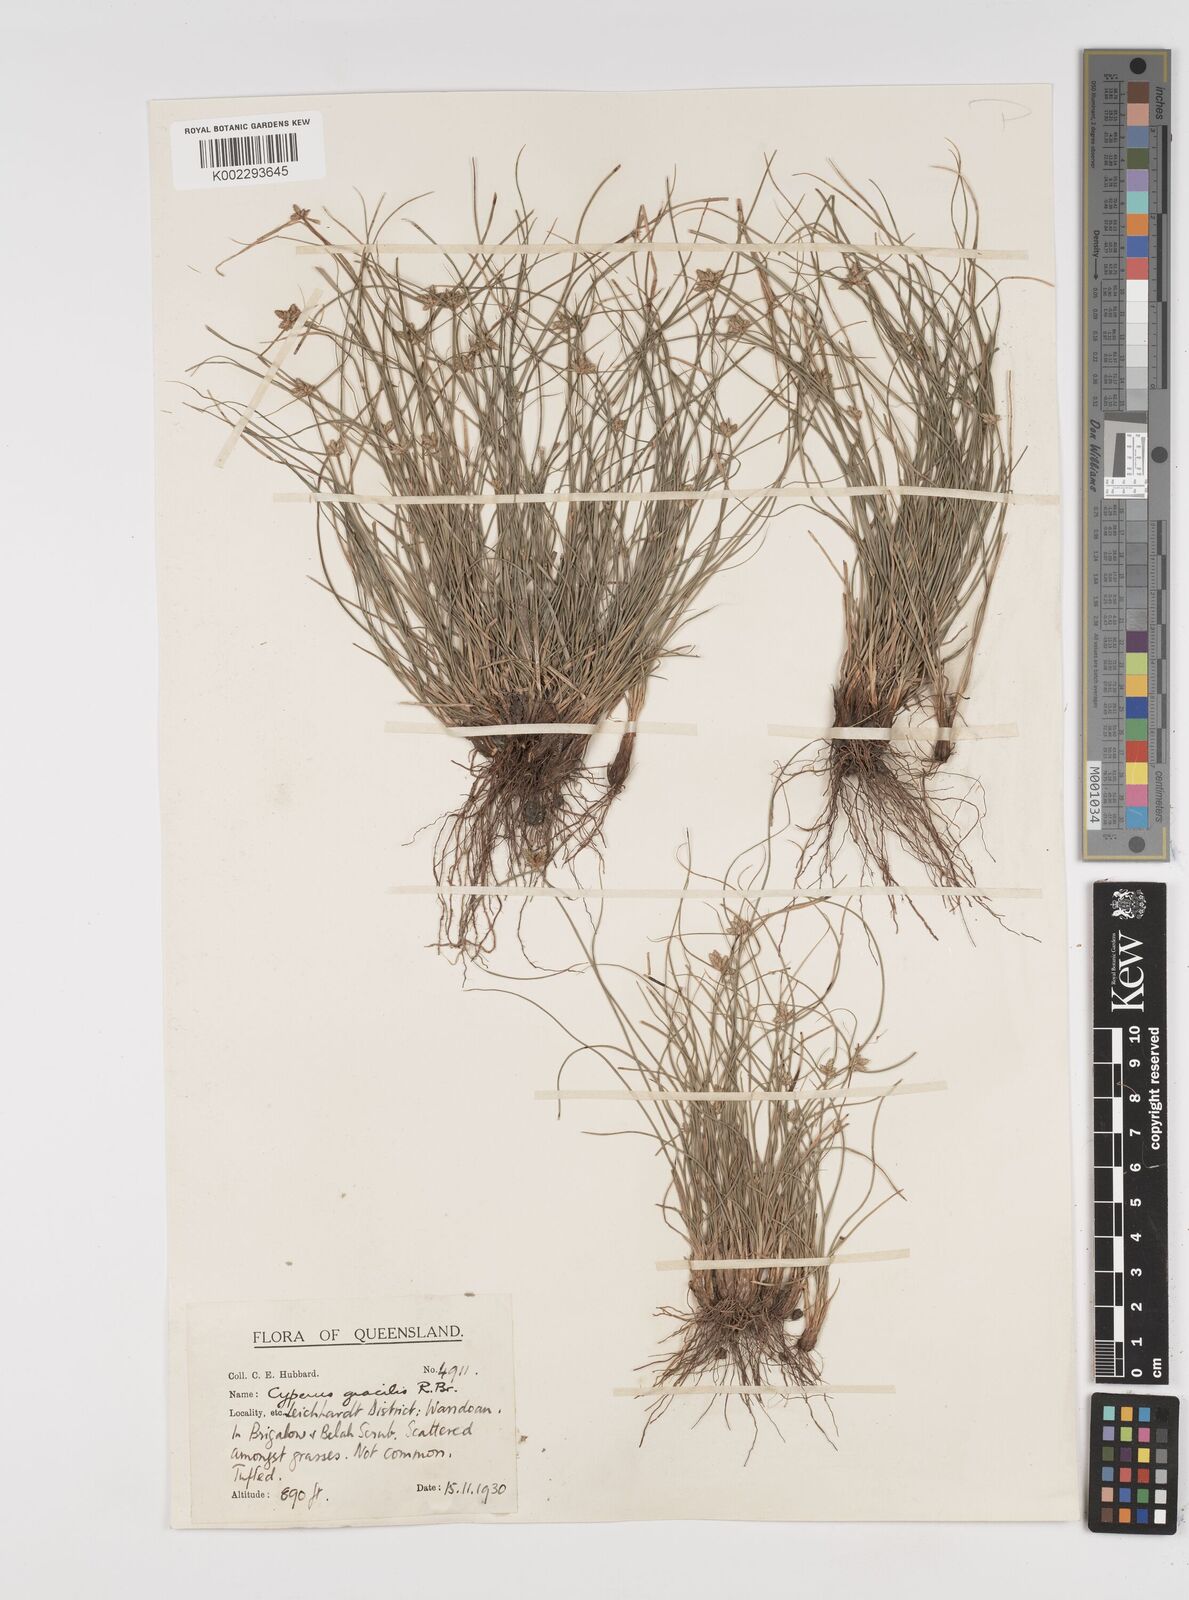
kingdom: Plantae
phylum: Tracheophyta
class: Liliopsida
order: Poales
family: Cyperaceae
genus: Cyperus
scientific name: Cyperus gracilis
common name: Slimjim flatsedge
